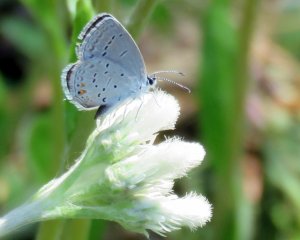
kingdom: Animalia
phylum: Arthropoda
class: Insecta
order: Lepidoptera
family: Lycaenidae
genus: Elkalyce
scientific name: Elkalyce comyntas
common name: Eastern Tailed-Blue
